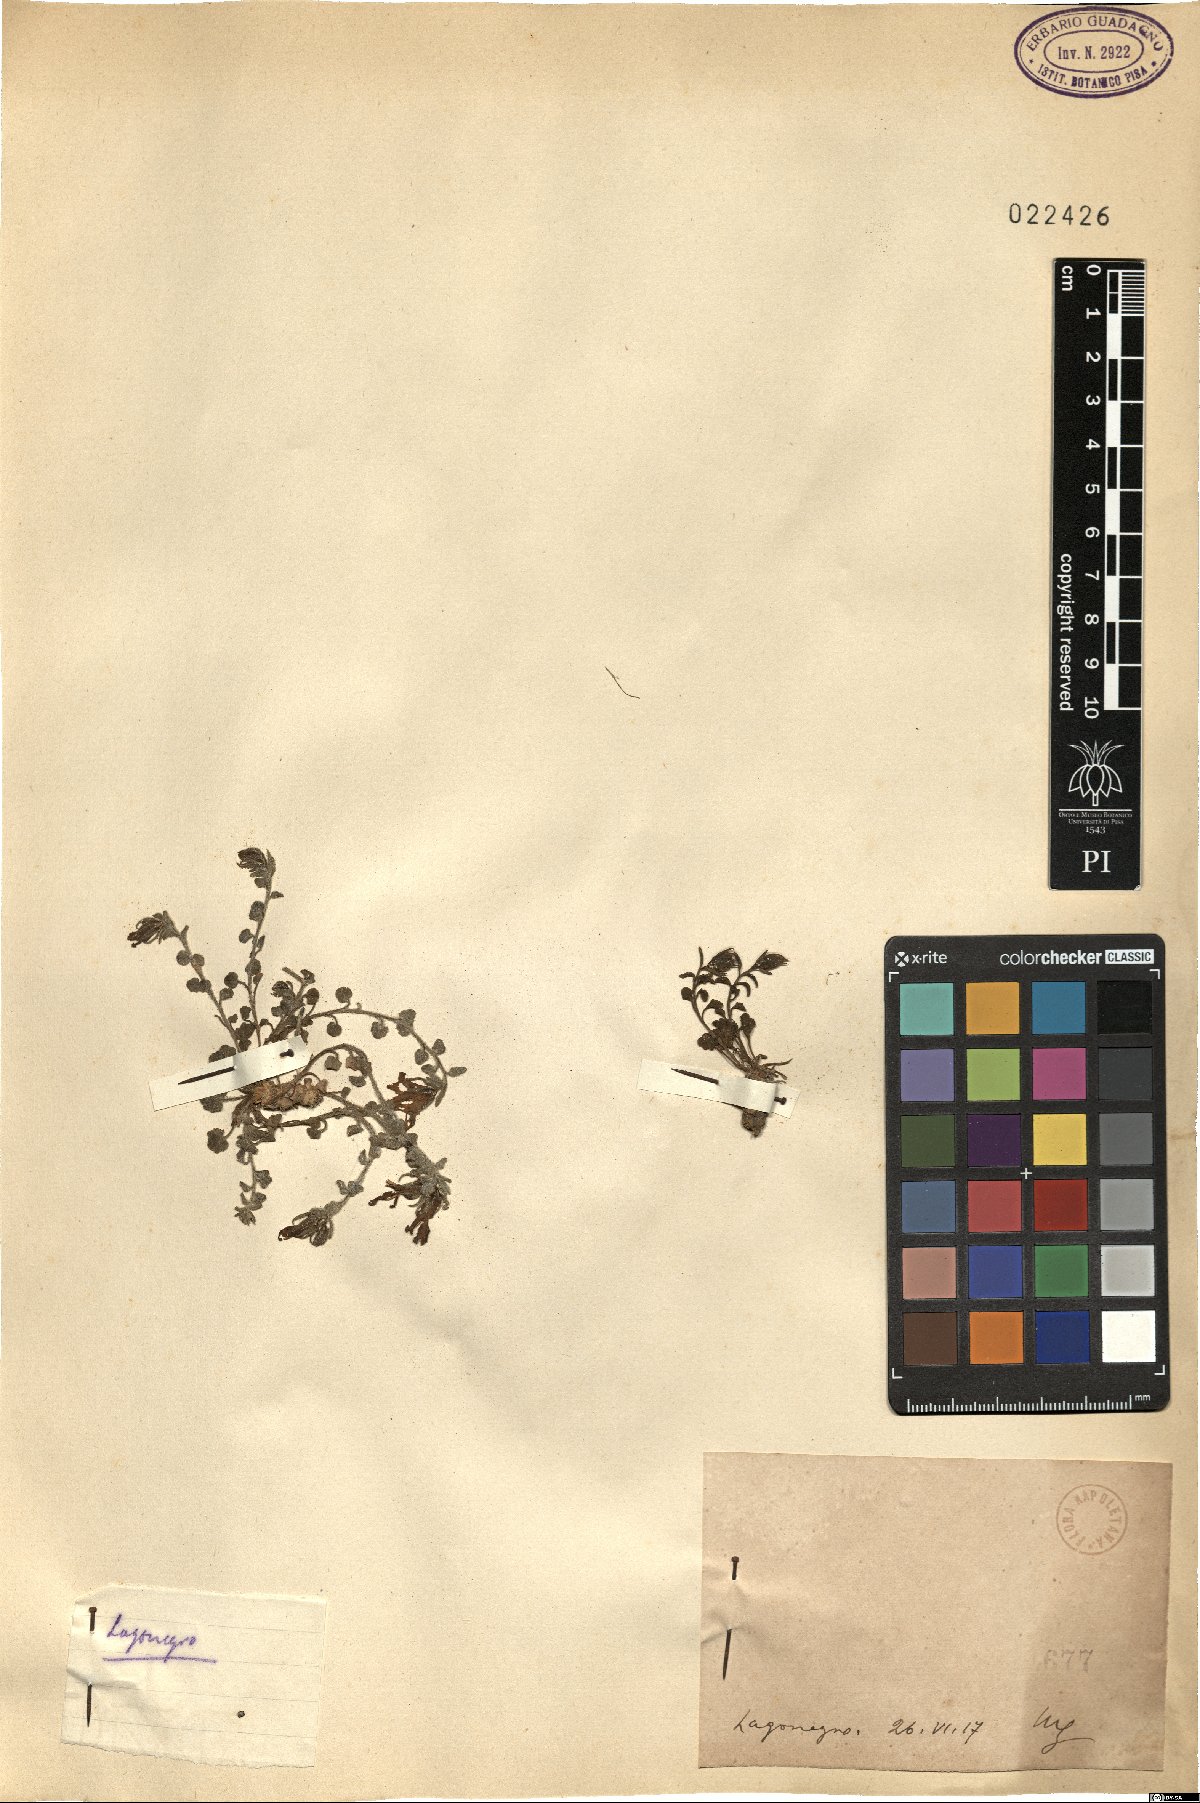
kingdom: Plantae
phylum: Tracheophyta
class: Magnoliopsida
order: Asterales
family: Campanulaceae
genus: Campanula
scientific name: Campanula
